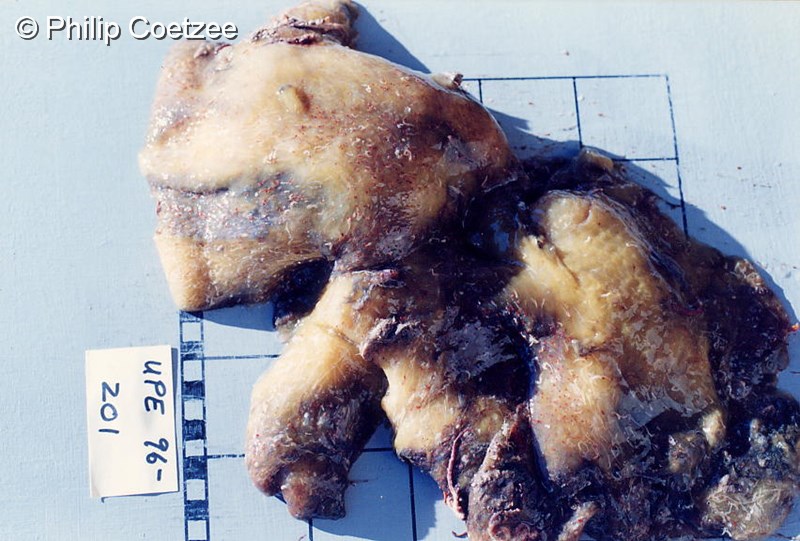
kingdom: Animalia
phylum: Chordata
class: Ascidiacea
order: Aplousobranchia
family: Pseudodistomidae
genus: Pseudodistoma
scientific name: Pseudodistoma
